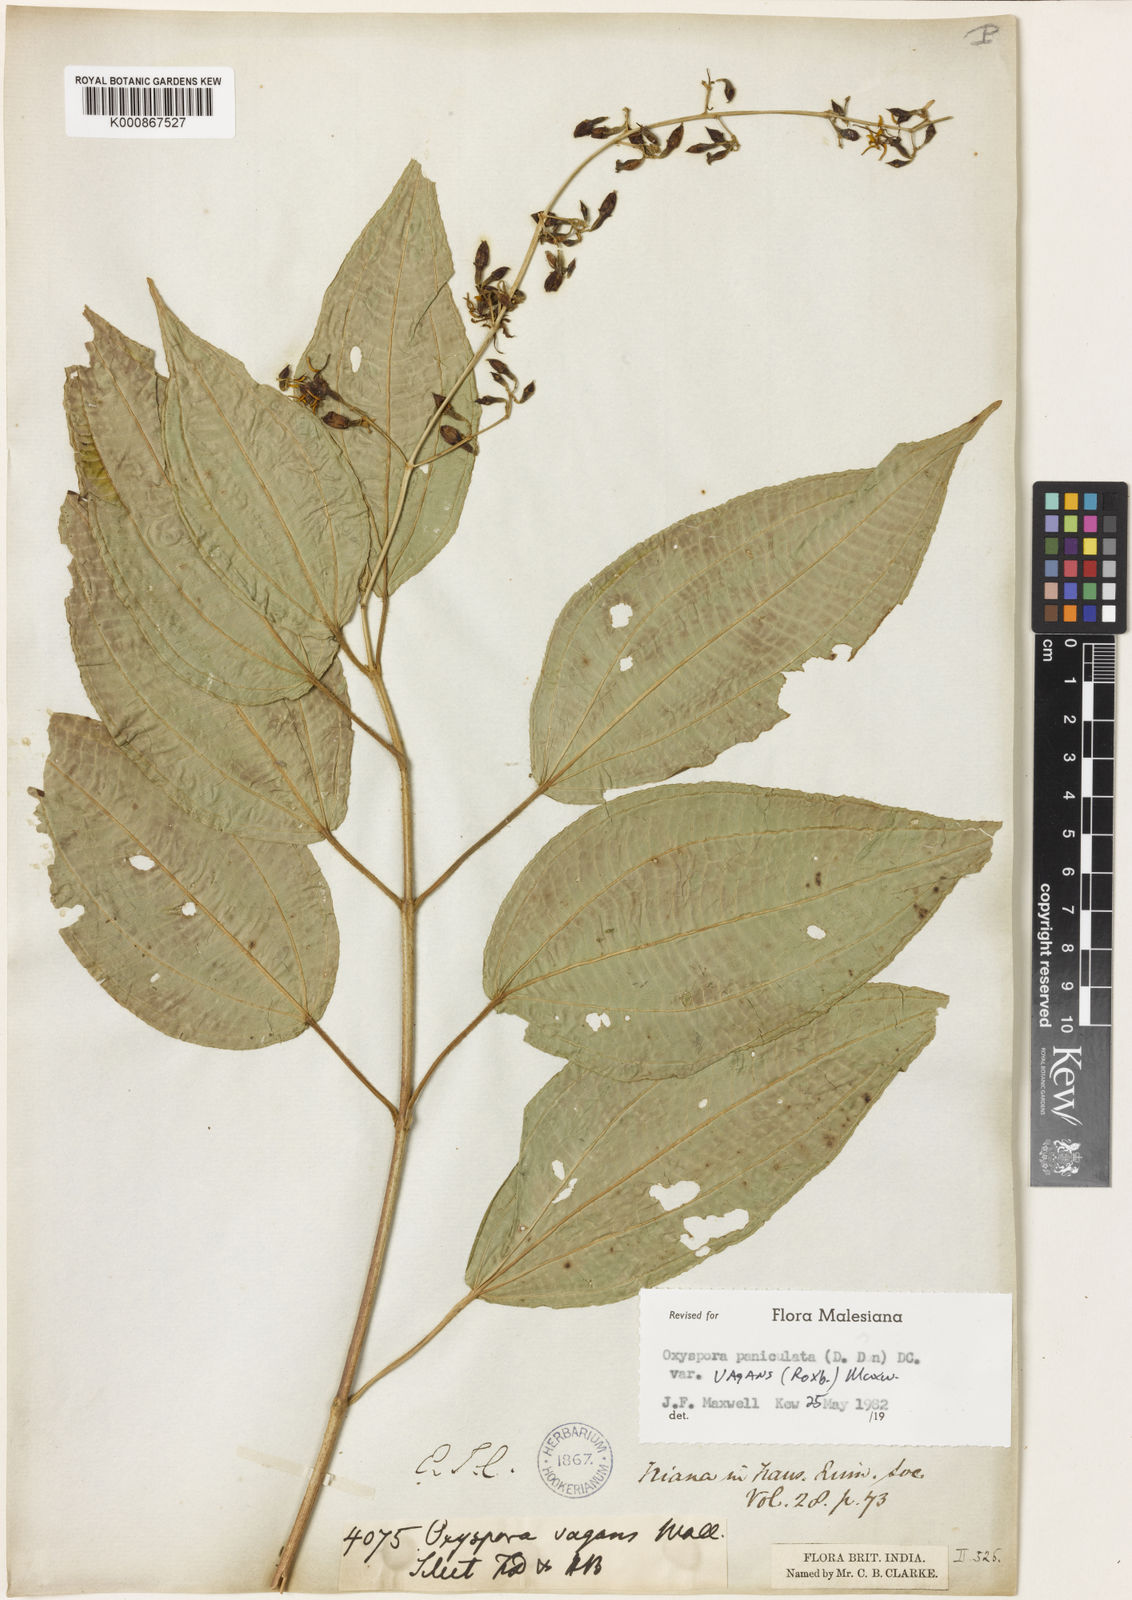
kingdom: Plantae
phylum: Tracheophyta
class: Magnoliopsida
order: Myrtales
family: Melastomataceae
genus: Oxyspora
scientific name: Oxyspora vagans
